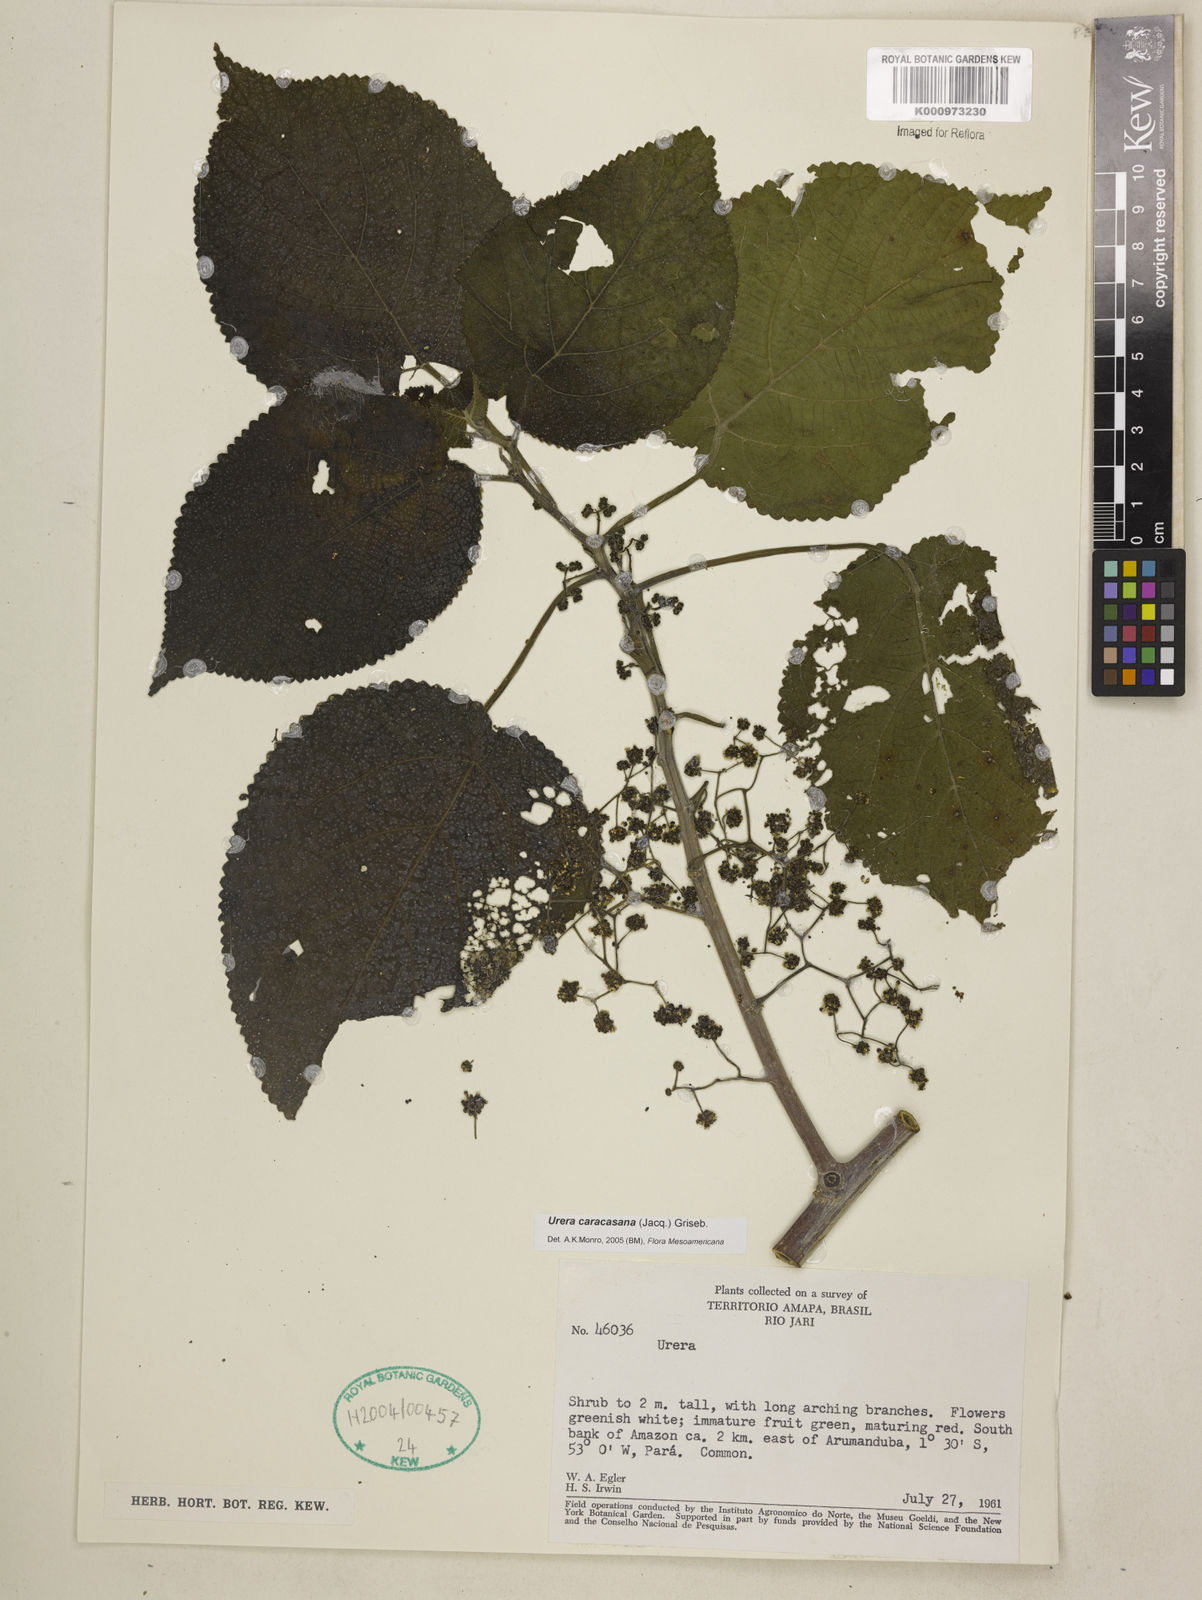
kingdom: Plantae
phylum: Tracheophyta
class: Magnoliopsida
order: Rosales
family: Urticaceae
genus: Urera
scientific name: Urera caracasana
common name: Flameberry
